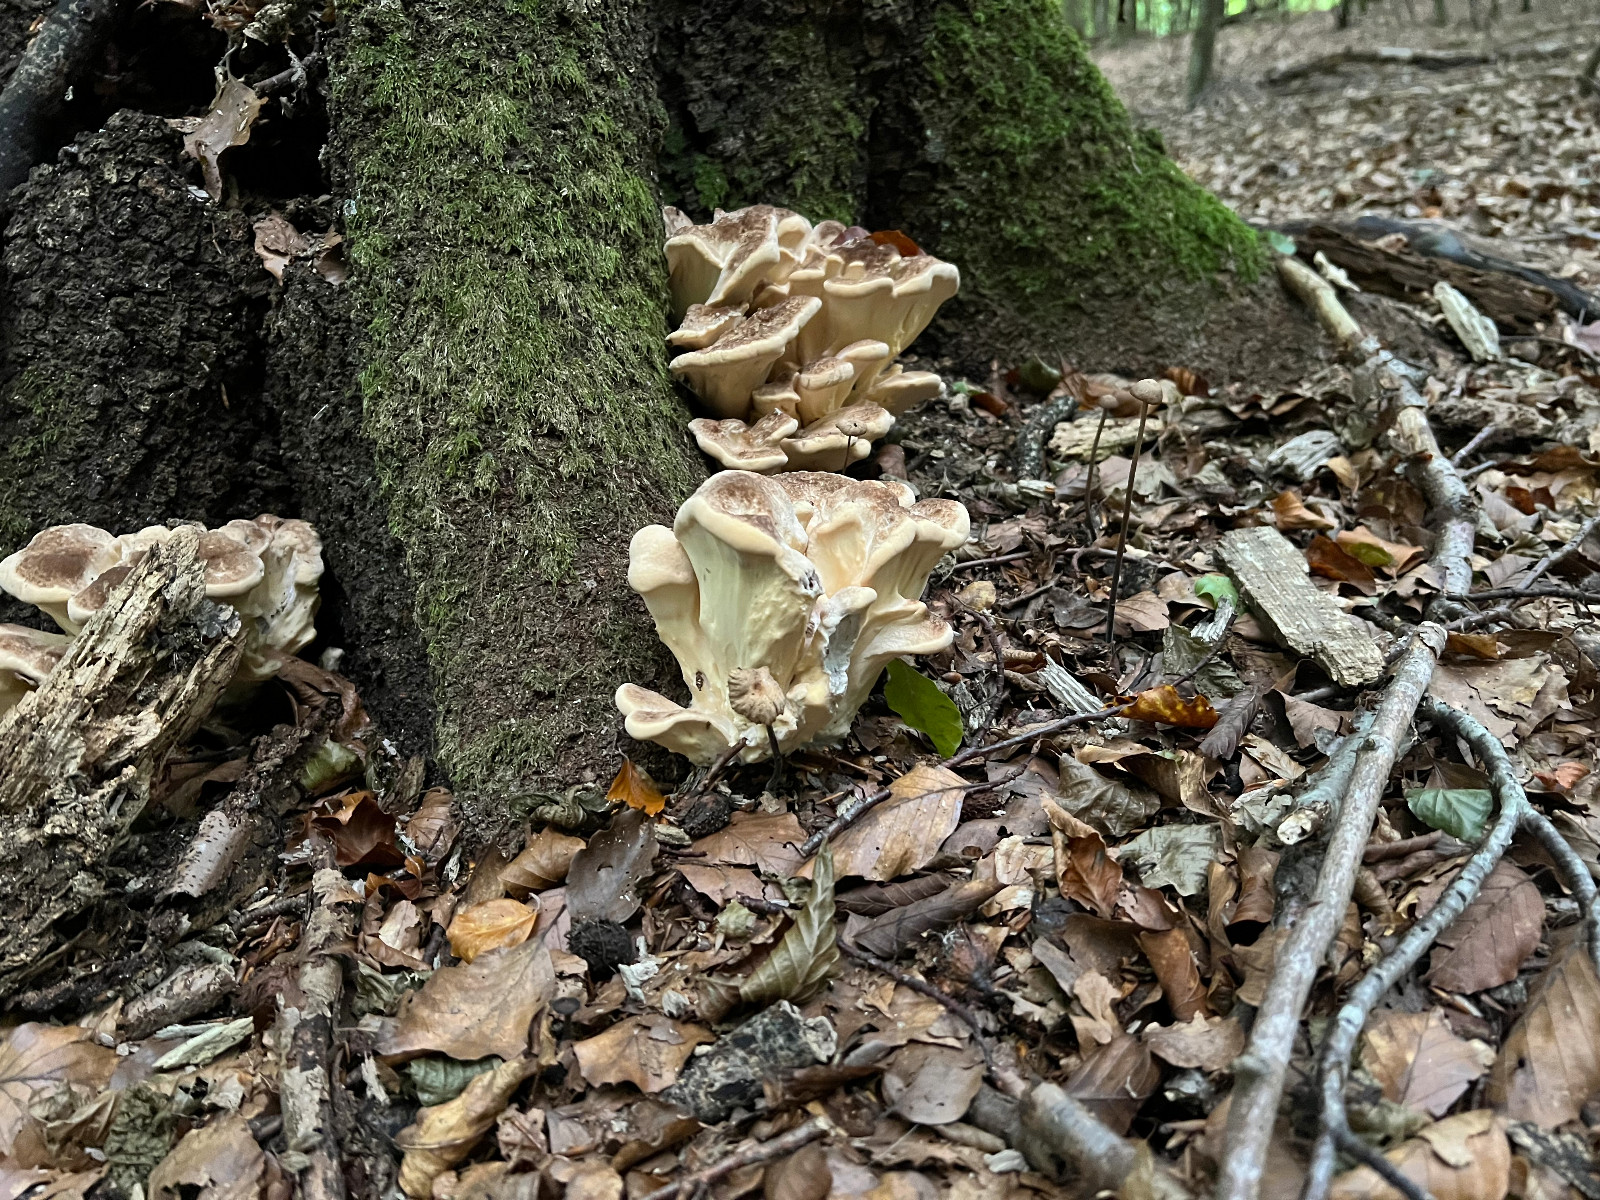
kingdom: Fungi
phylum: Basidiomycota
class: Agaricomycetes
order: Polyporales
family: Meripilaceae
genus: Meripilus
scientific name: Meripilus giganteus
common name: kæmpeporesvamp
